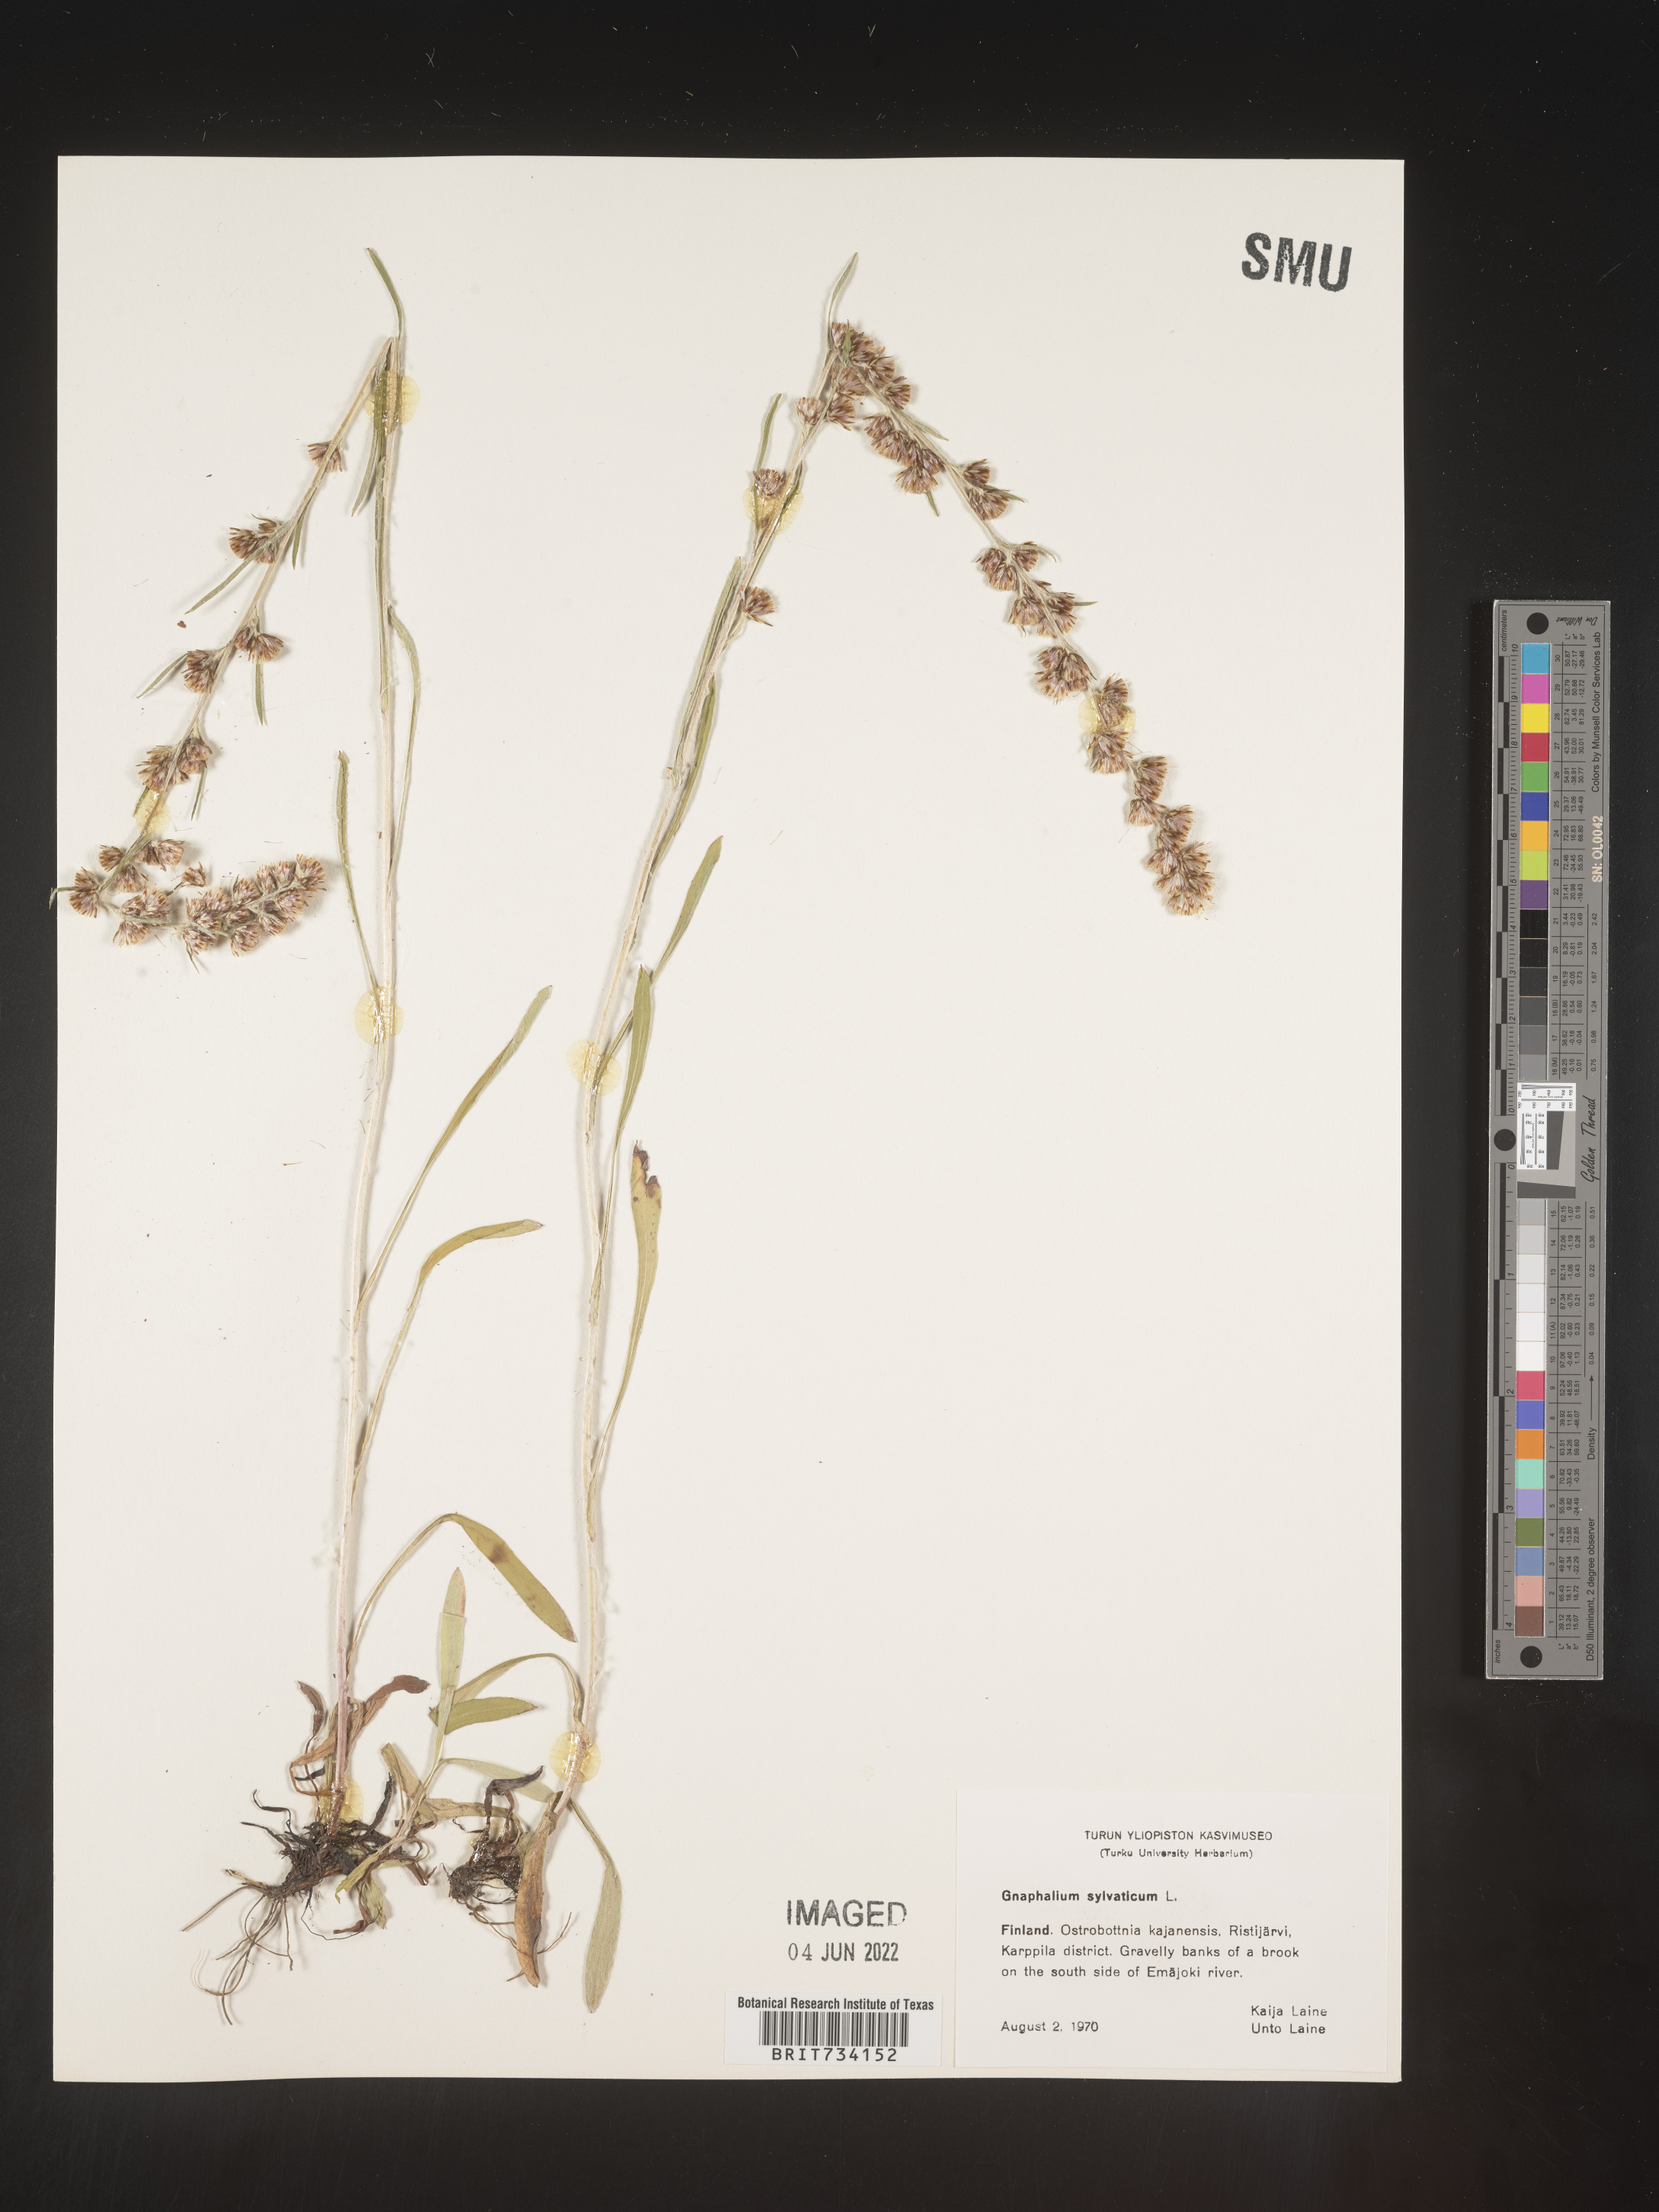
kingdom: Plantae
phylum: Tracheophyta
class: Magnoliopsida
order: Asterales
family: Asteraceae
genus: Omalotheca
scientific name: Omalotheca sylvatica
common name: Heath cudweed
